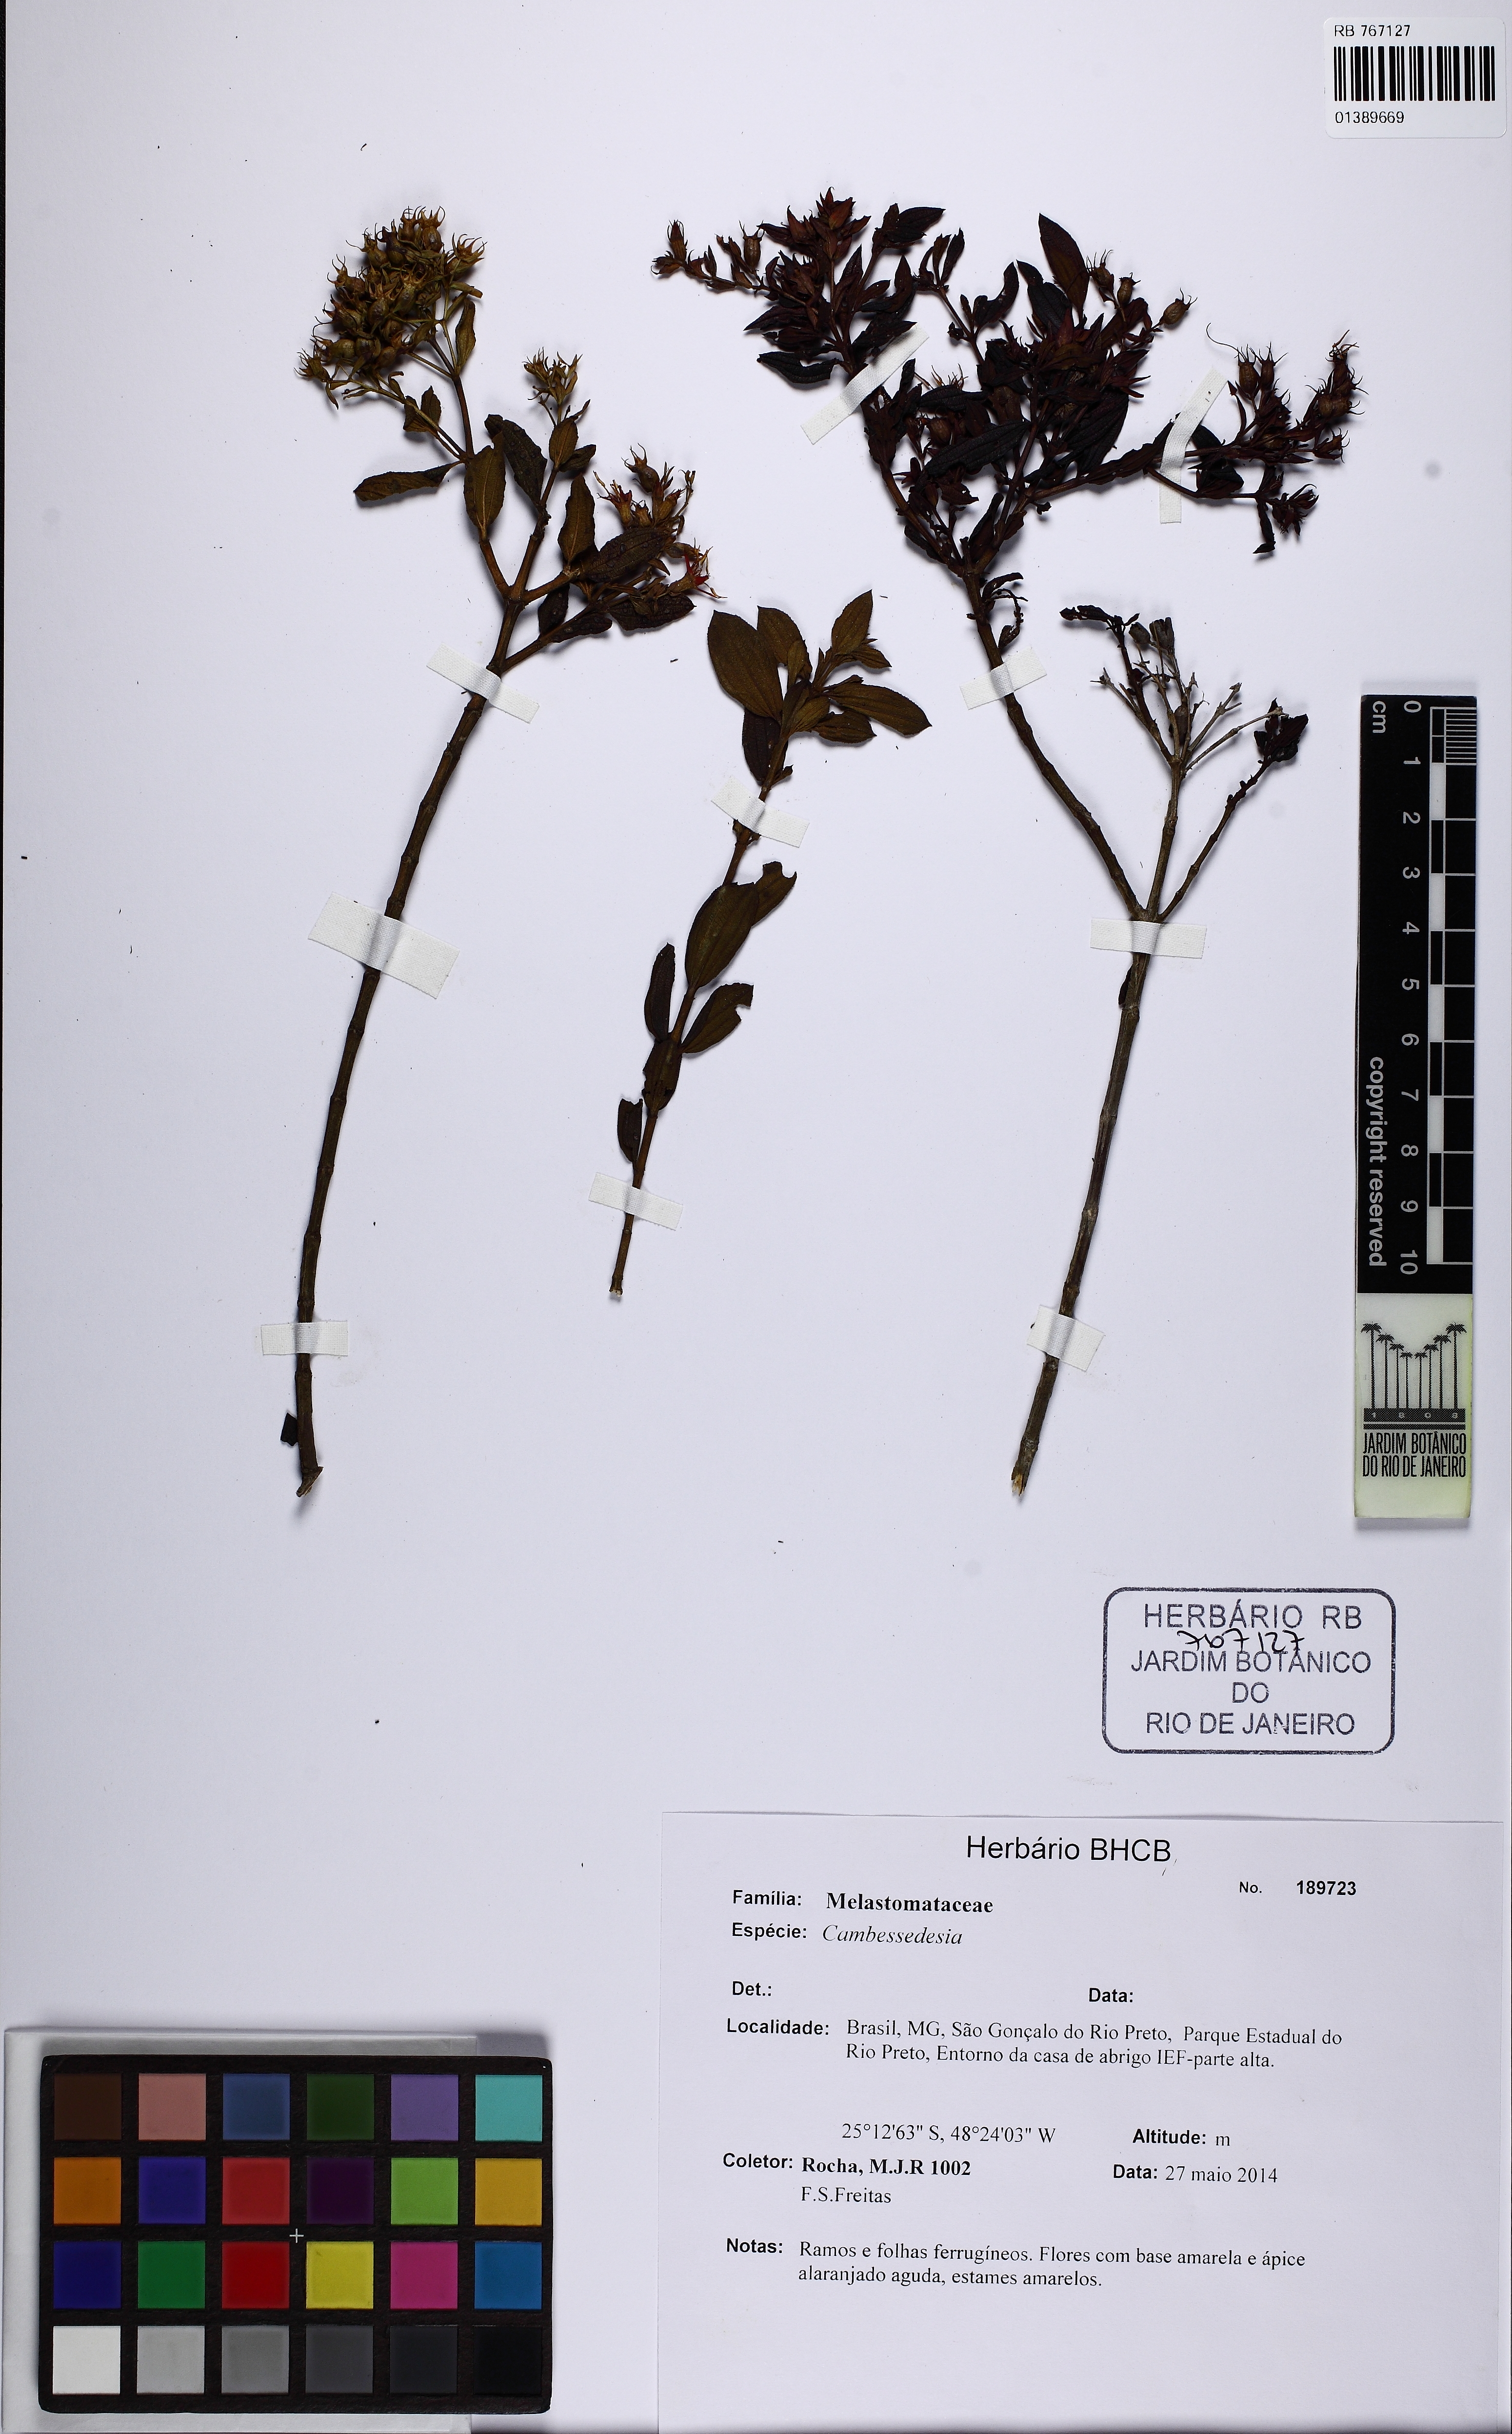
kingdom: Plantae
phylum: Tracheophyta
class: Magnoliopsida
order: Myrtales
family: Melastomataceae
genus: Cambessedesia
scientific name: Cambessedesia
